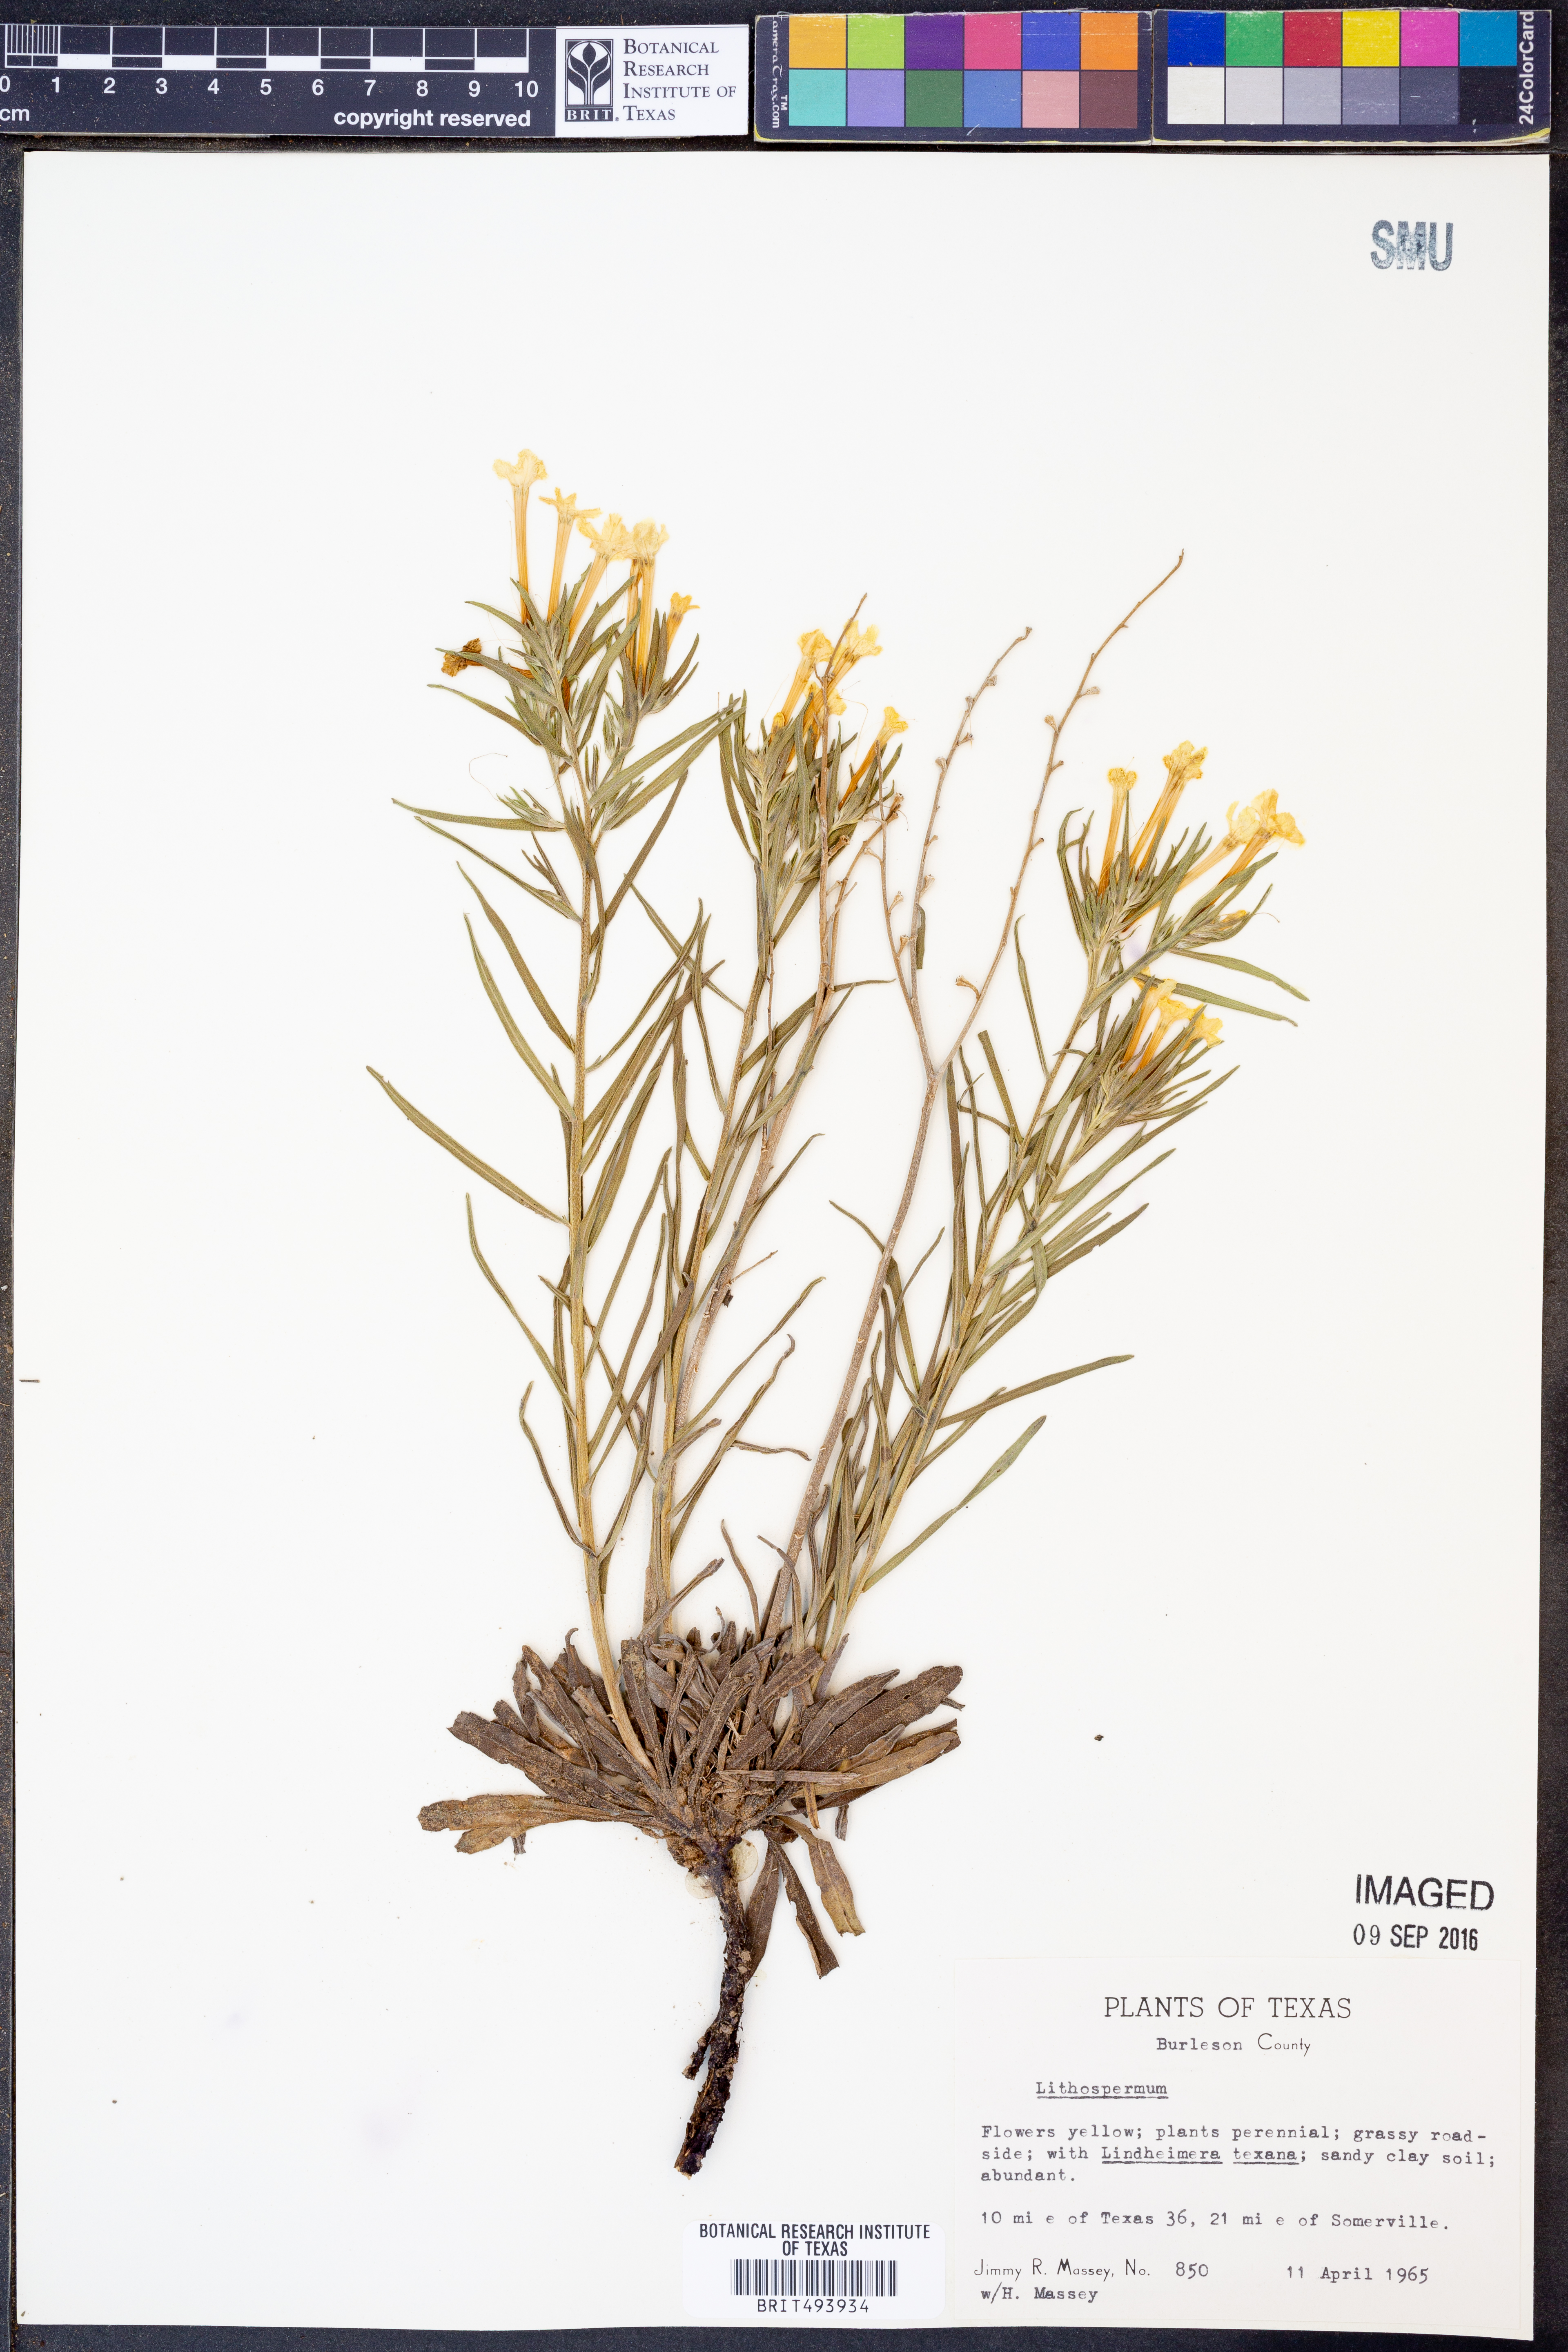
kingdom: Plantae
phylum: Tracheophyta
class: Magnoliopsida
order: Boraginales
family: Boraginaceae
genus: Lithospermum
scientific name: Lithospermum
